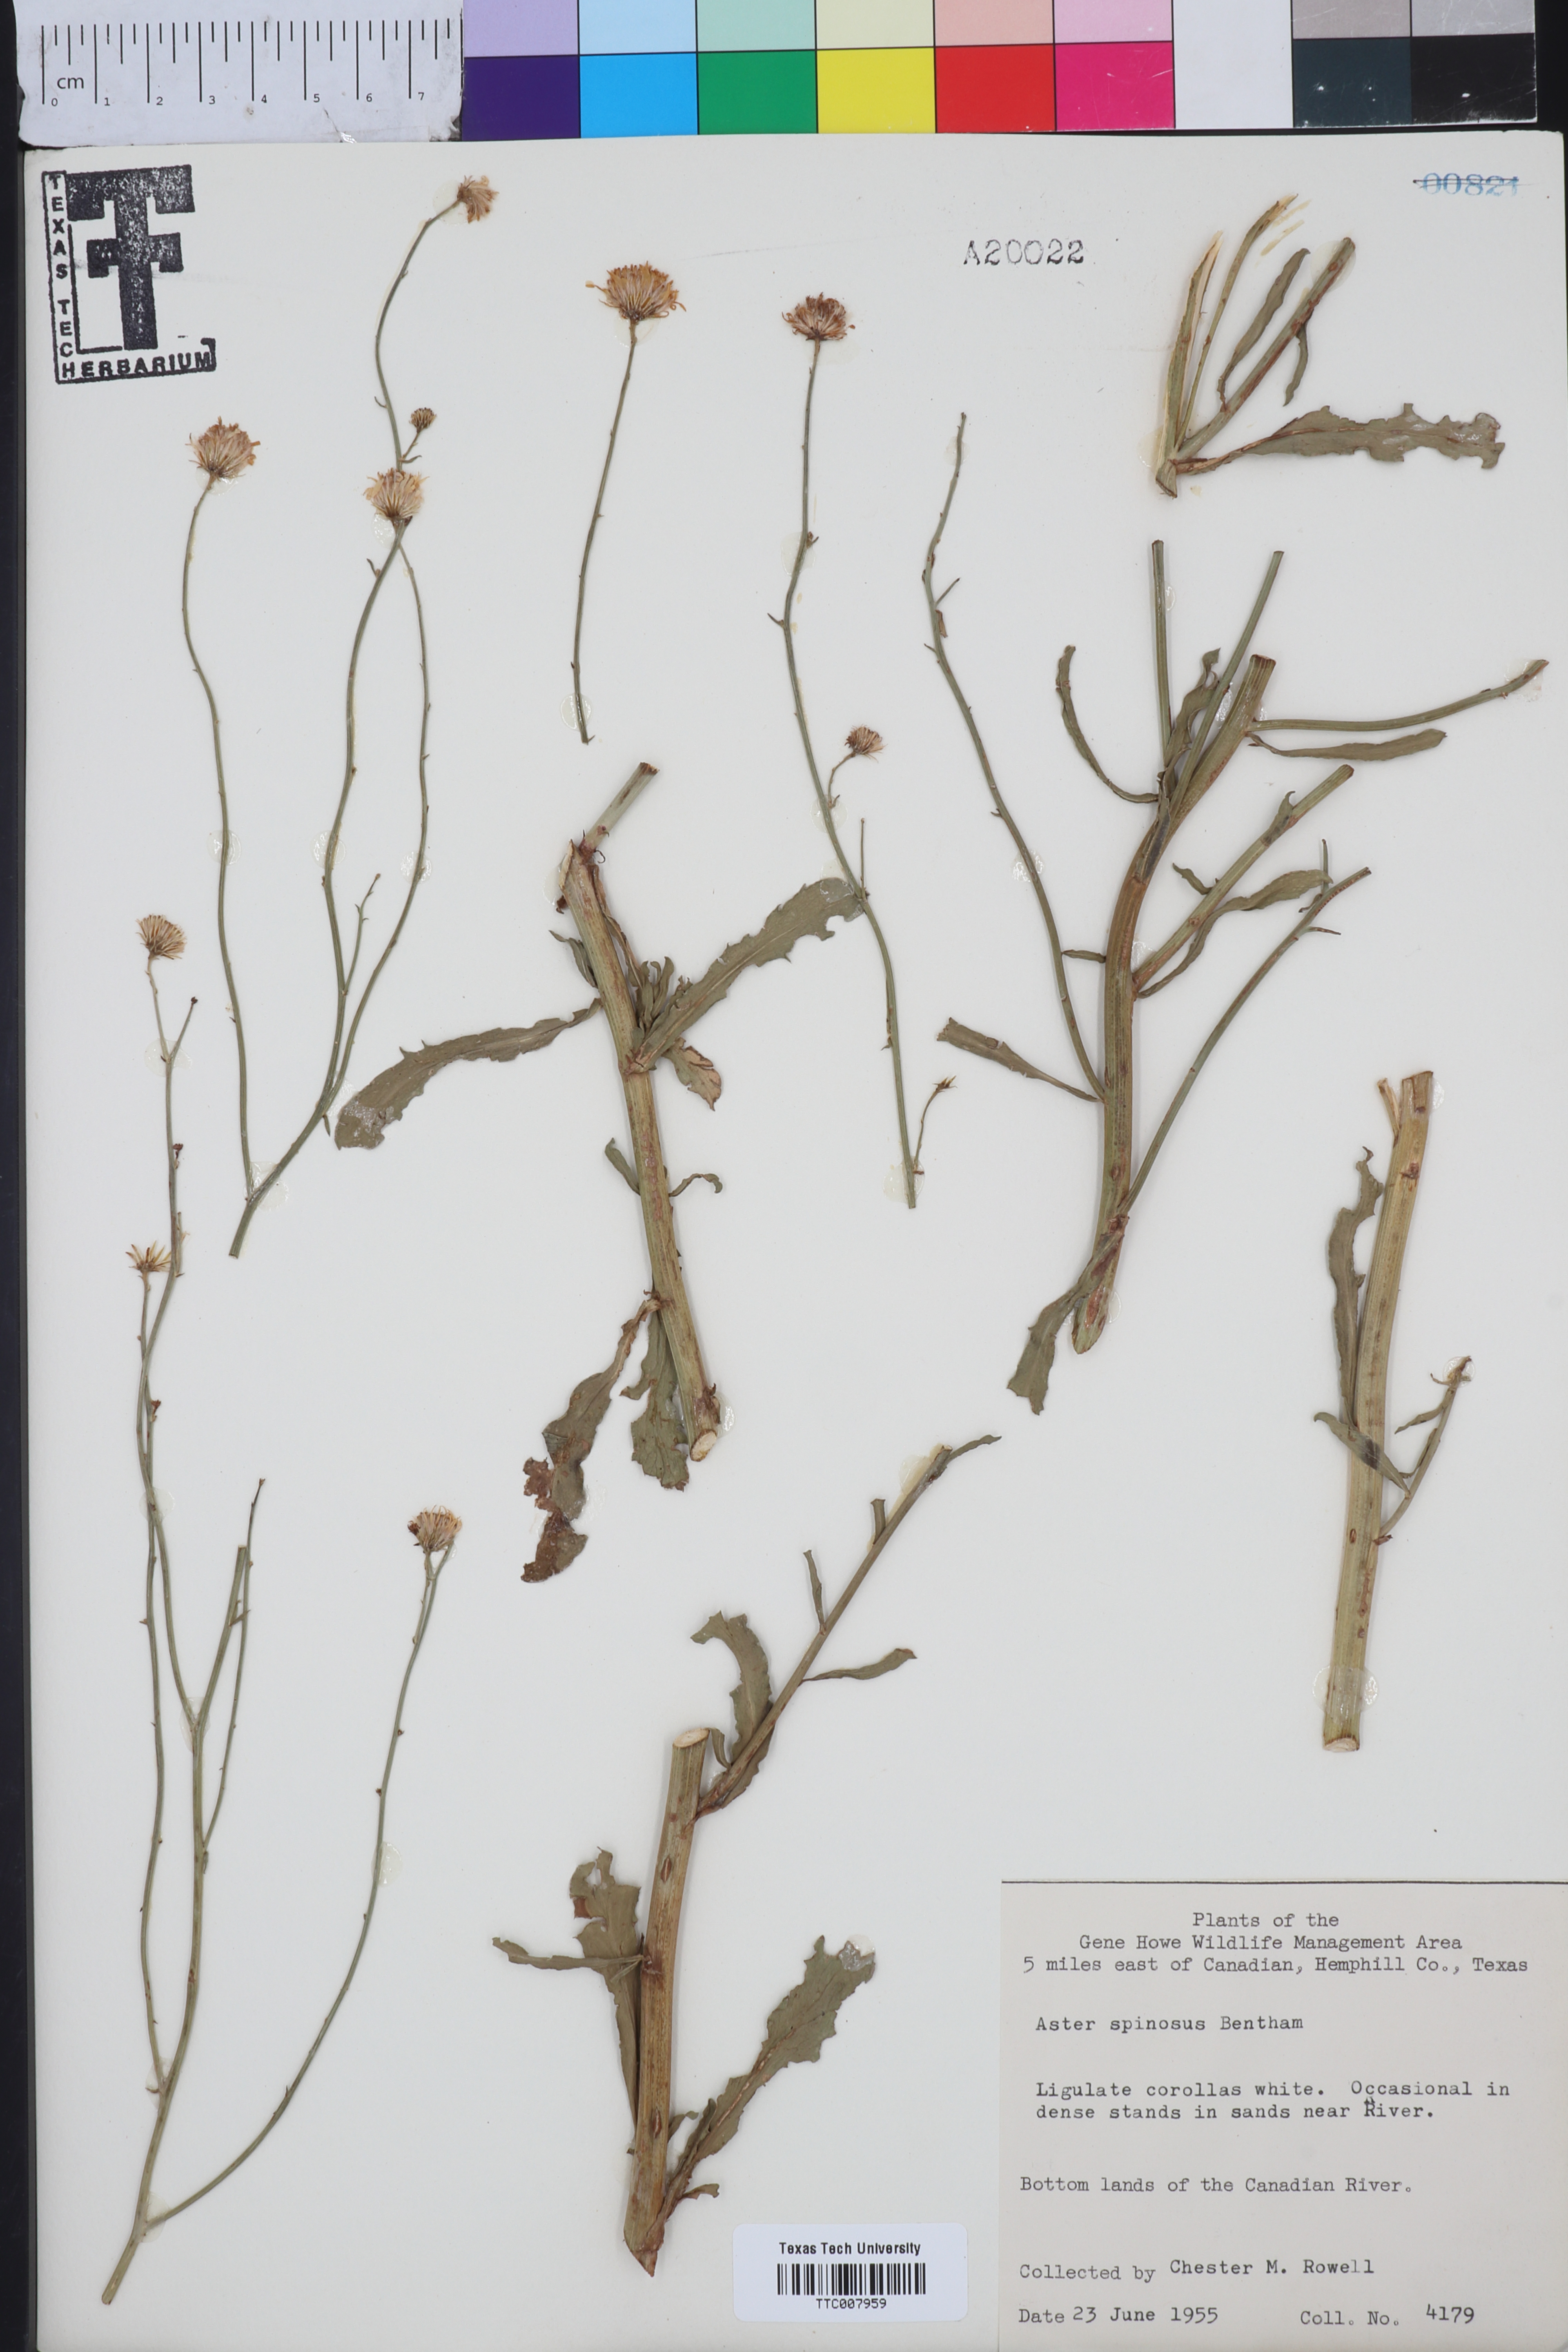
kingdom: Plantae
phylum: Tracheophyta
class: Magnoliopsida
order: Asterales
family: Asteraceae
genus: Chloracantha
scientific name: Chloracantha spinosa
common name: Mexican devilweed
